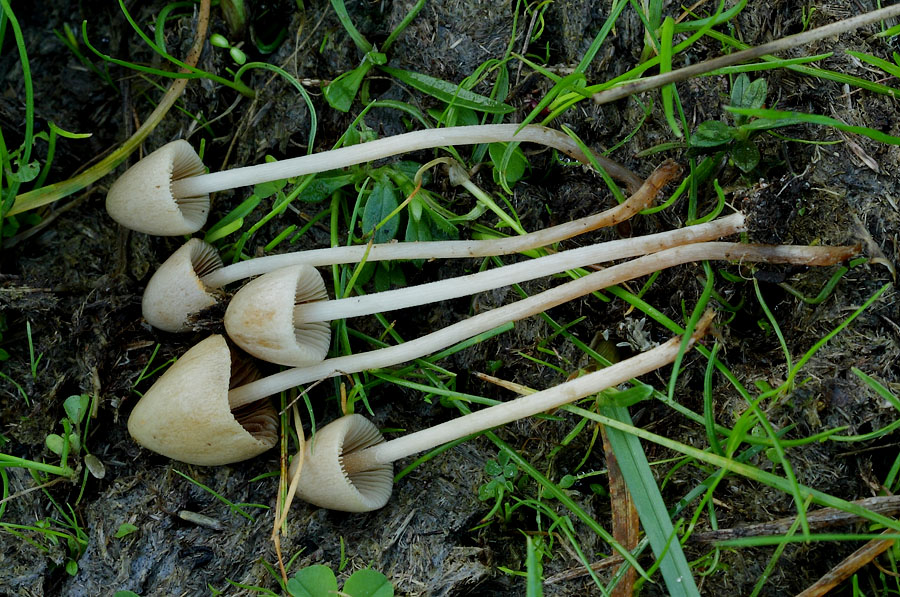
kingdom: Fungi
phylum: Basidiomycota
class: Agaricomycetes
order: Agaricales
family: Bolbitiaceae
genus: Conocybe
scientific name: Conocybe rickenii
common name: møg-keglehat
